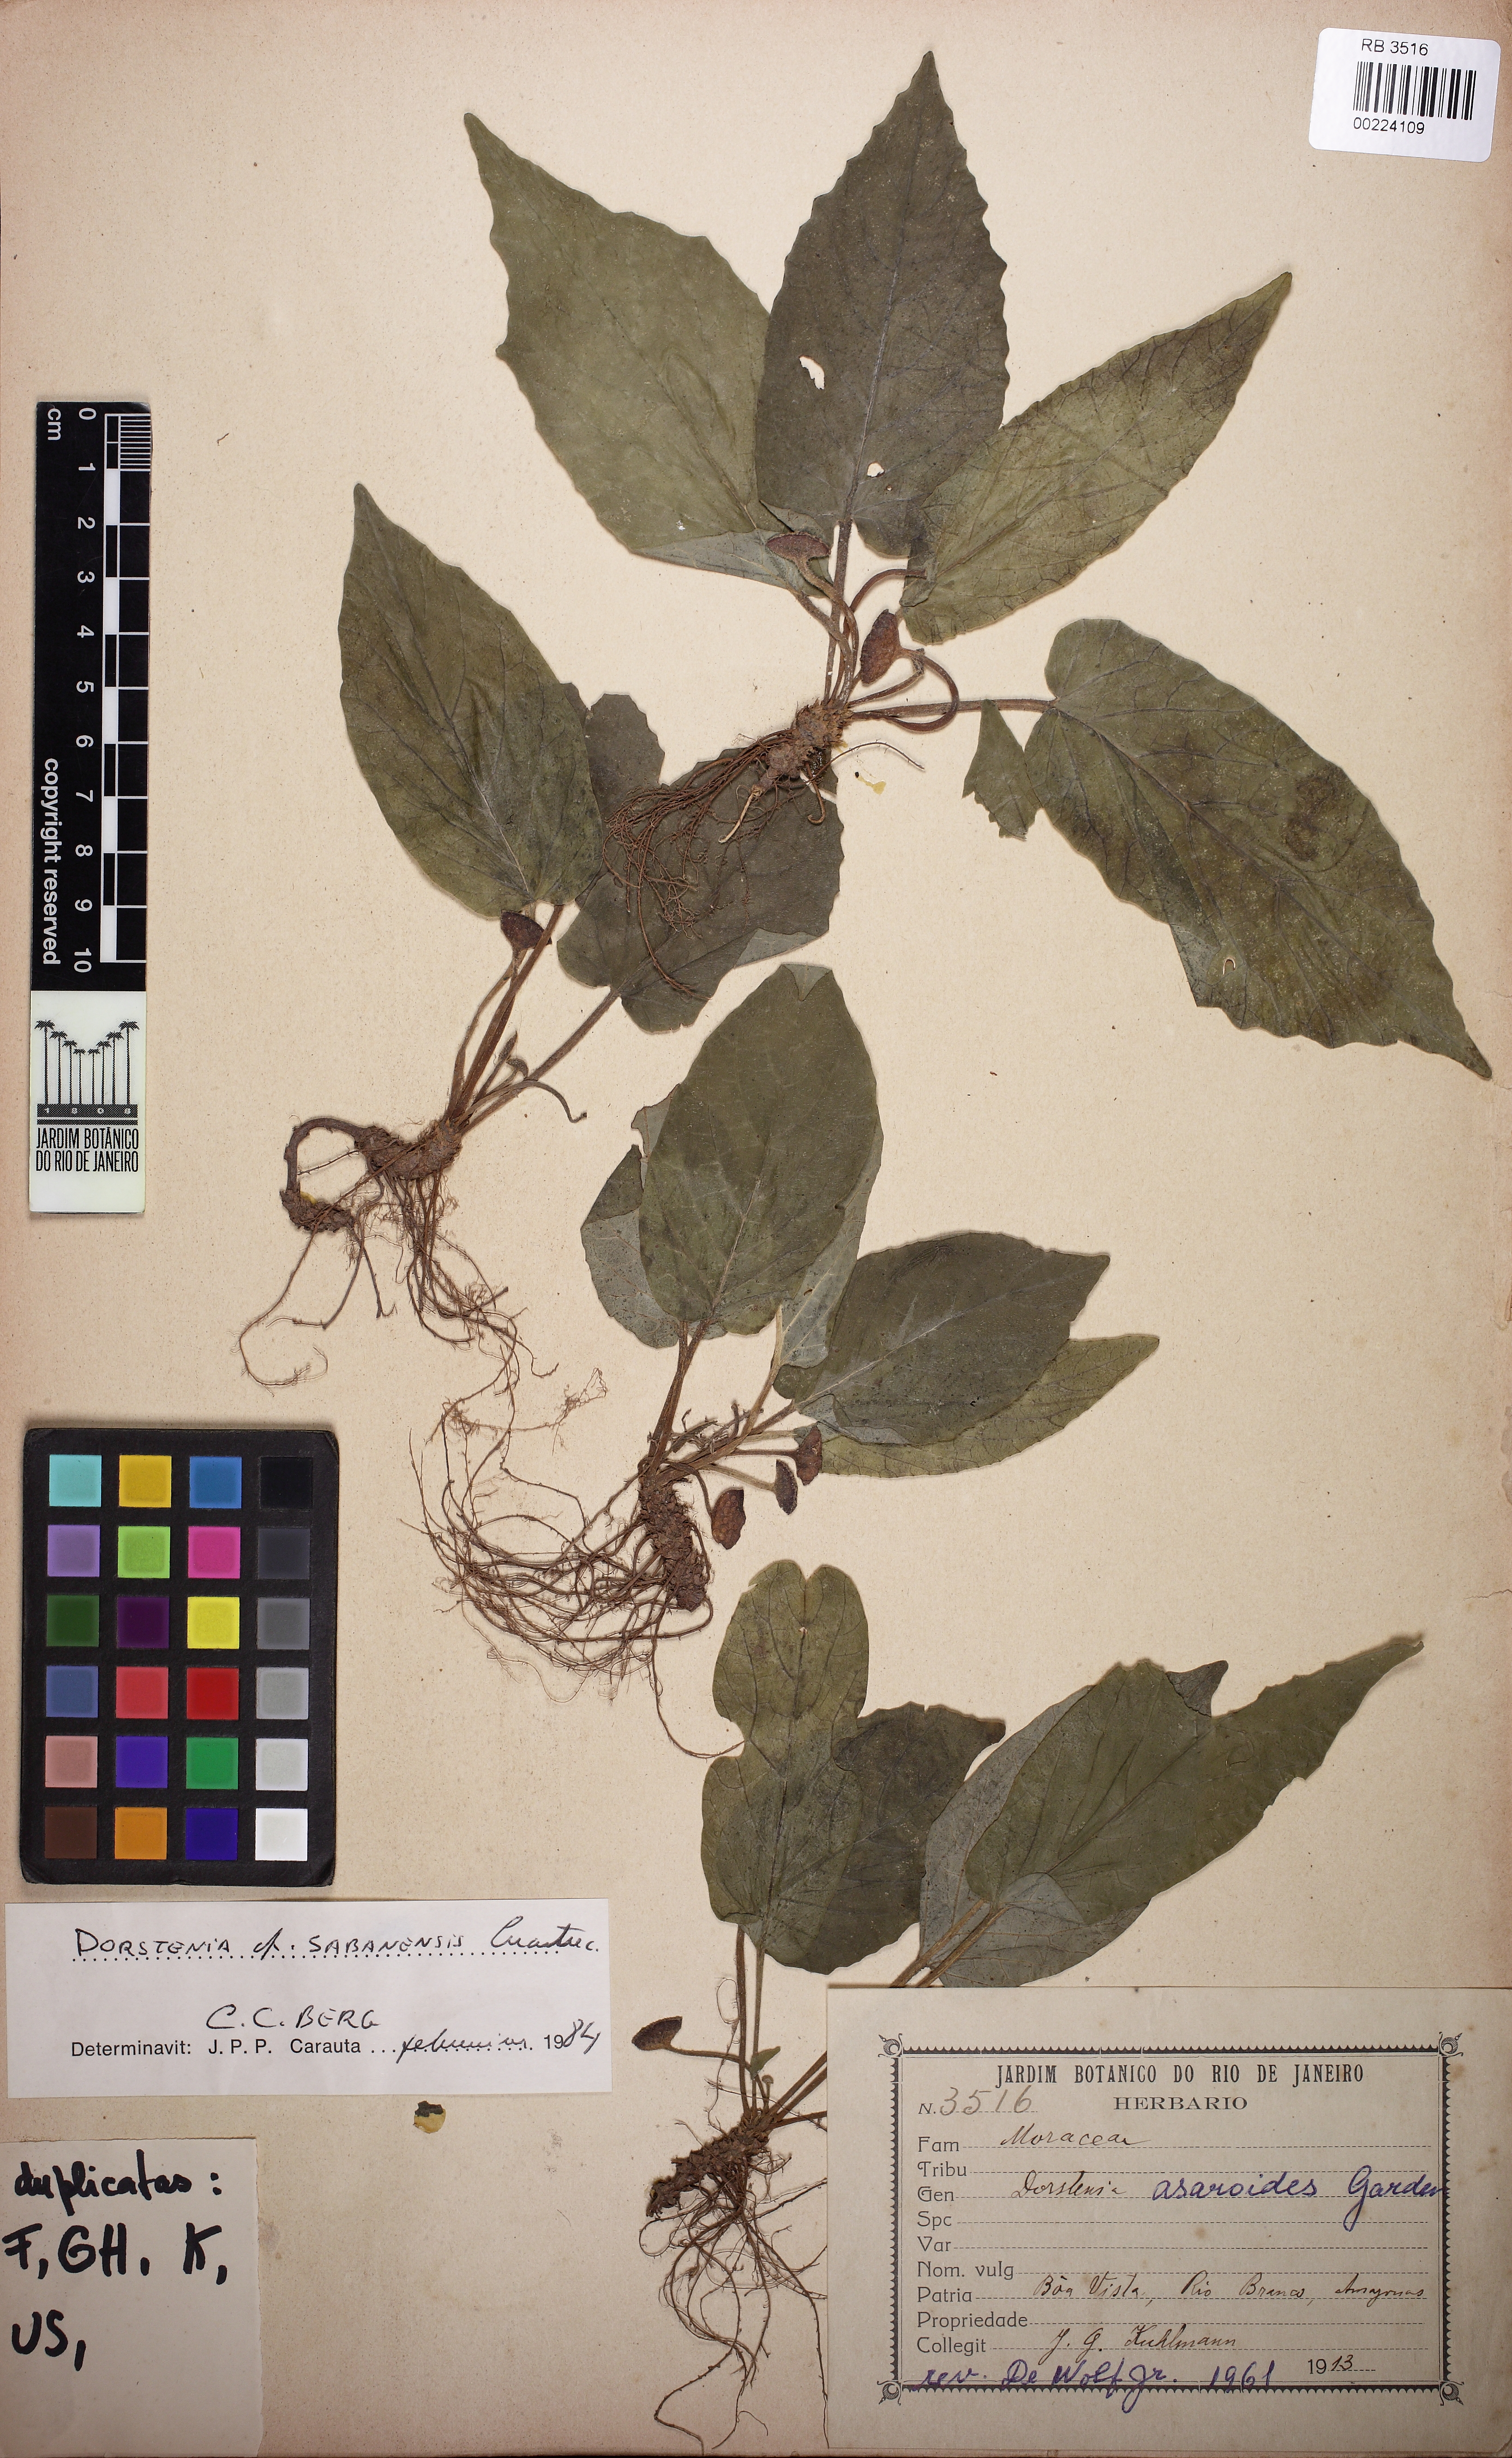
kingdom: Plantae
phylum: Tracheophyta
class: Magnoliopsida
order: Rosales
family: Moraceae
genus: Dorstenia
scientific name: Dorstenia brasiliensis
